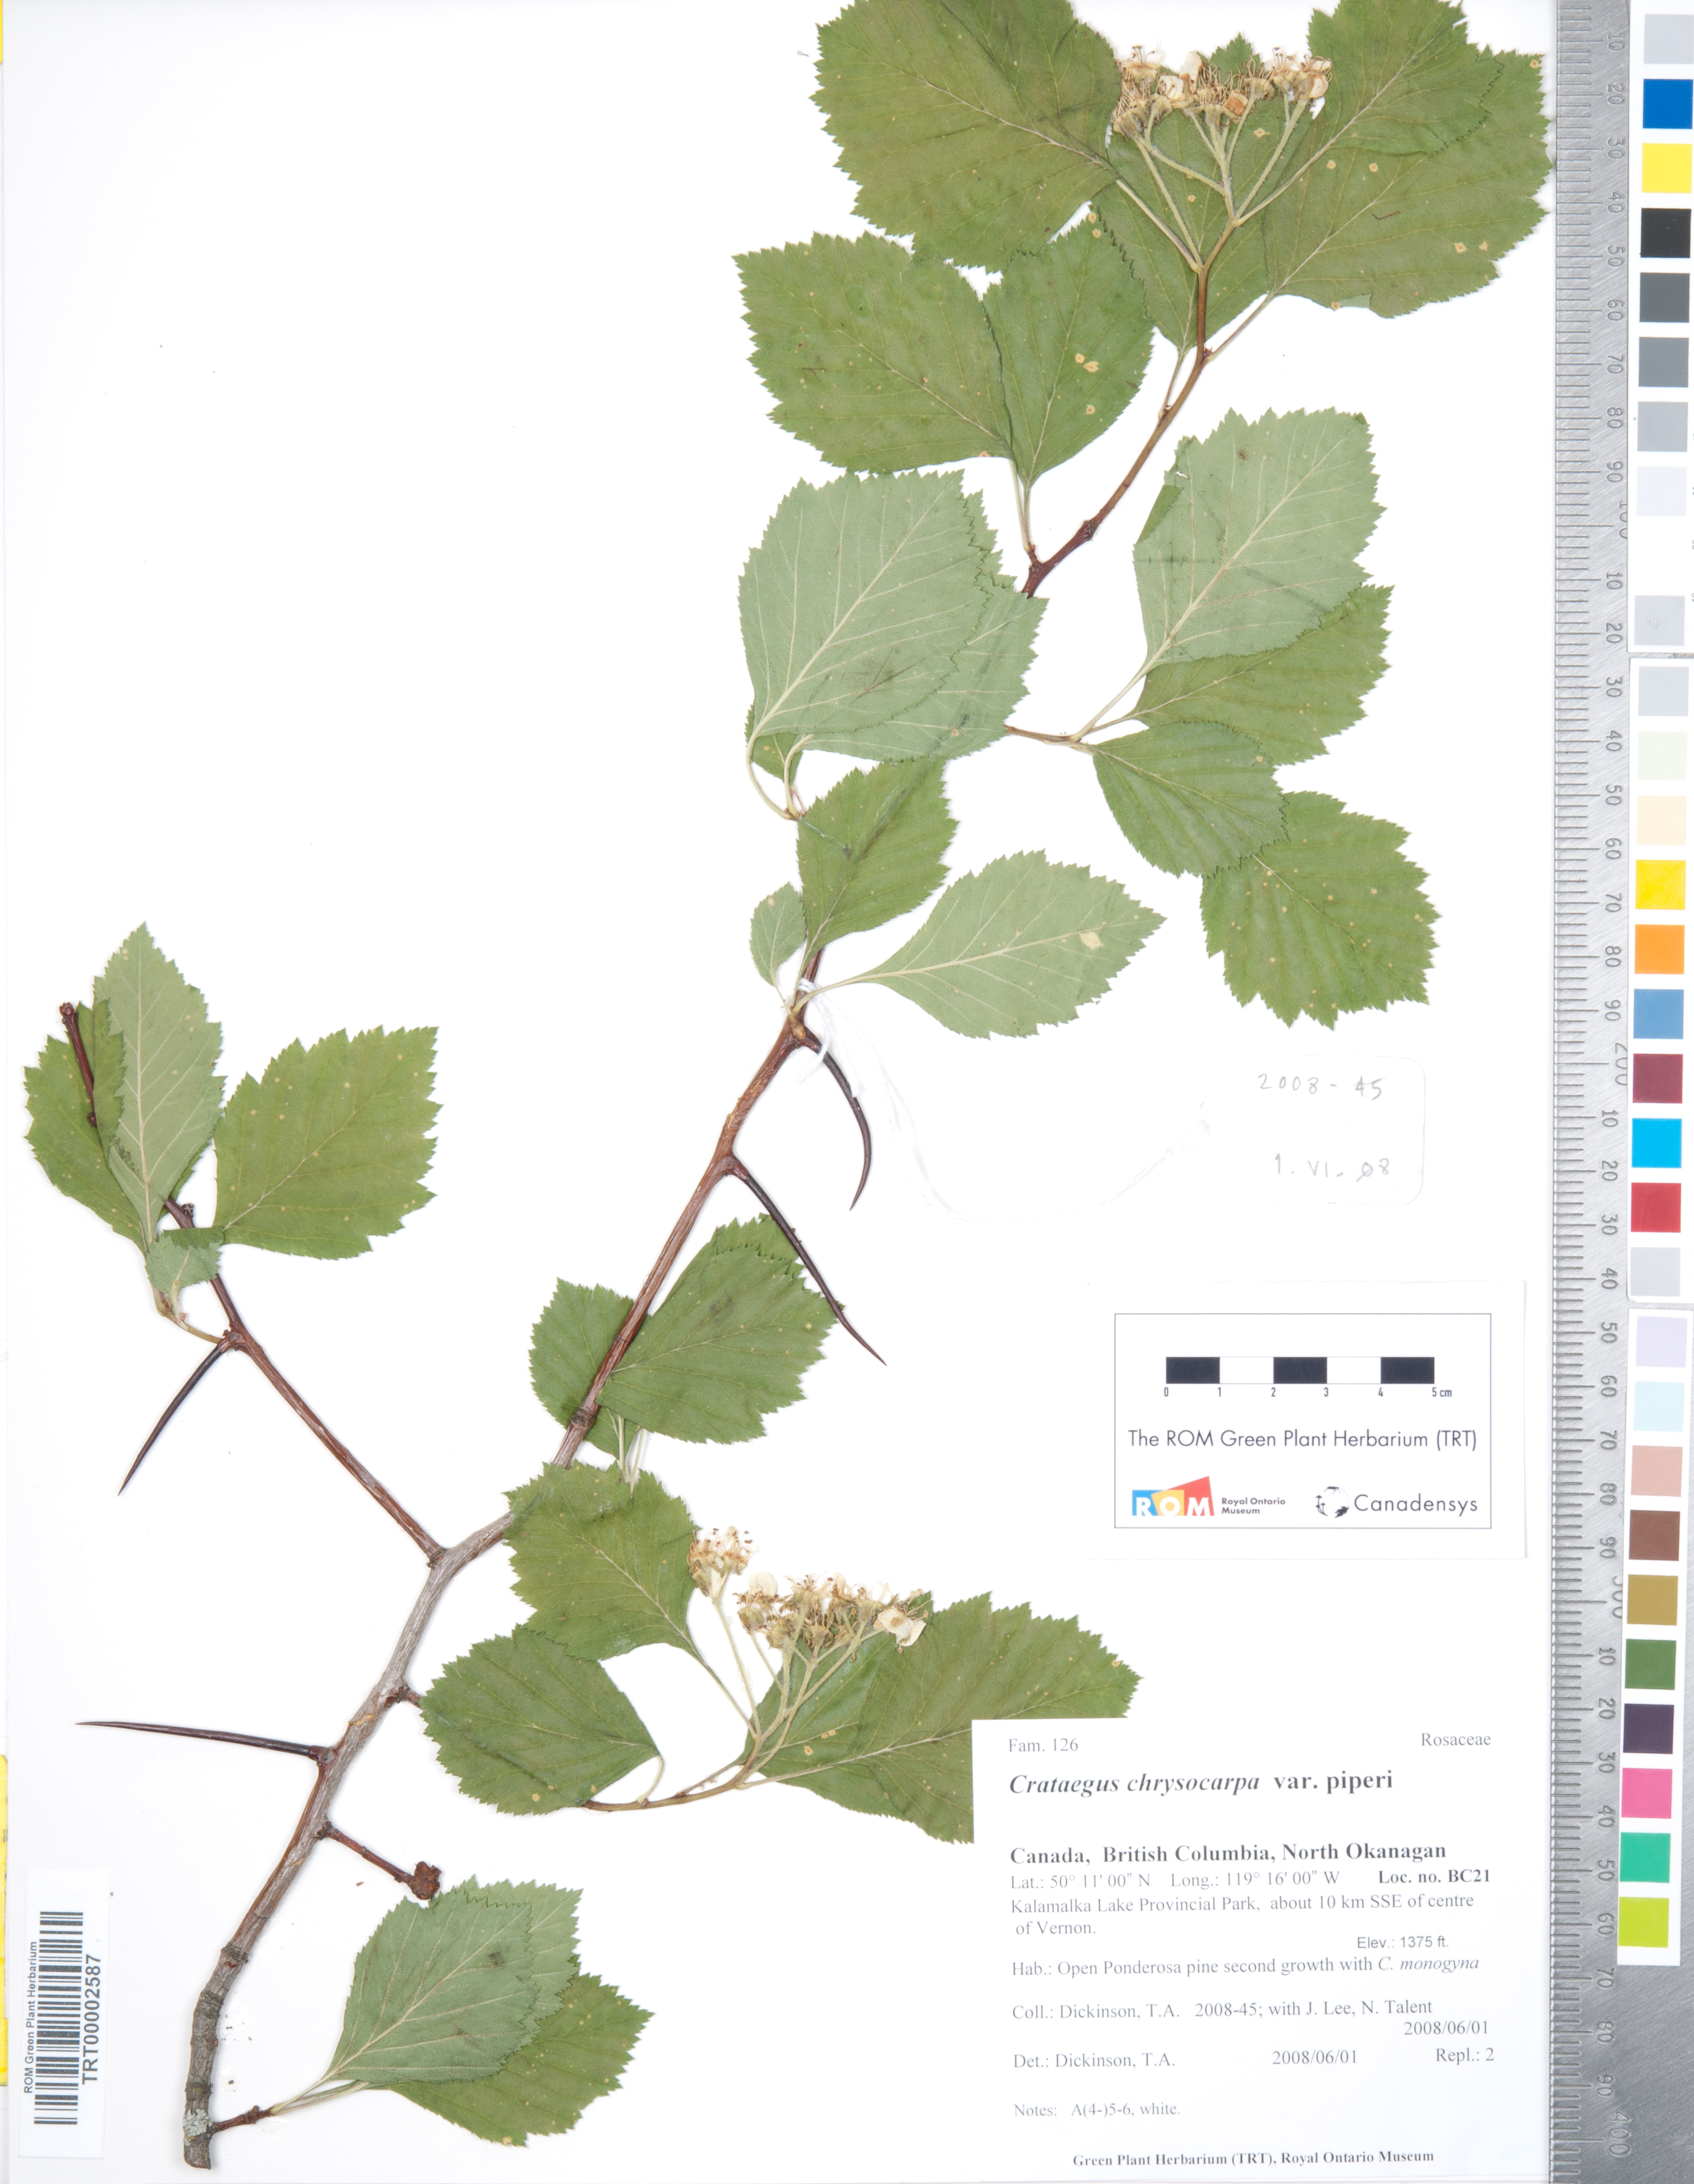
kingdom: Plantae
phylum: Tracheophyta
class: Magnoliopsida
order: Rosales
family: Rosaceae
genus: Crataegus
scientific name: Crataegus piperi
